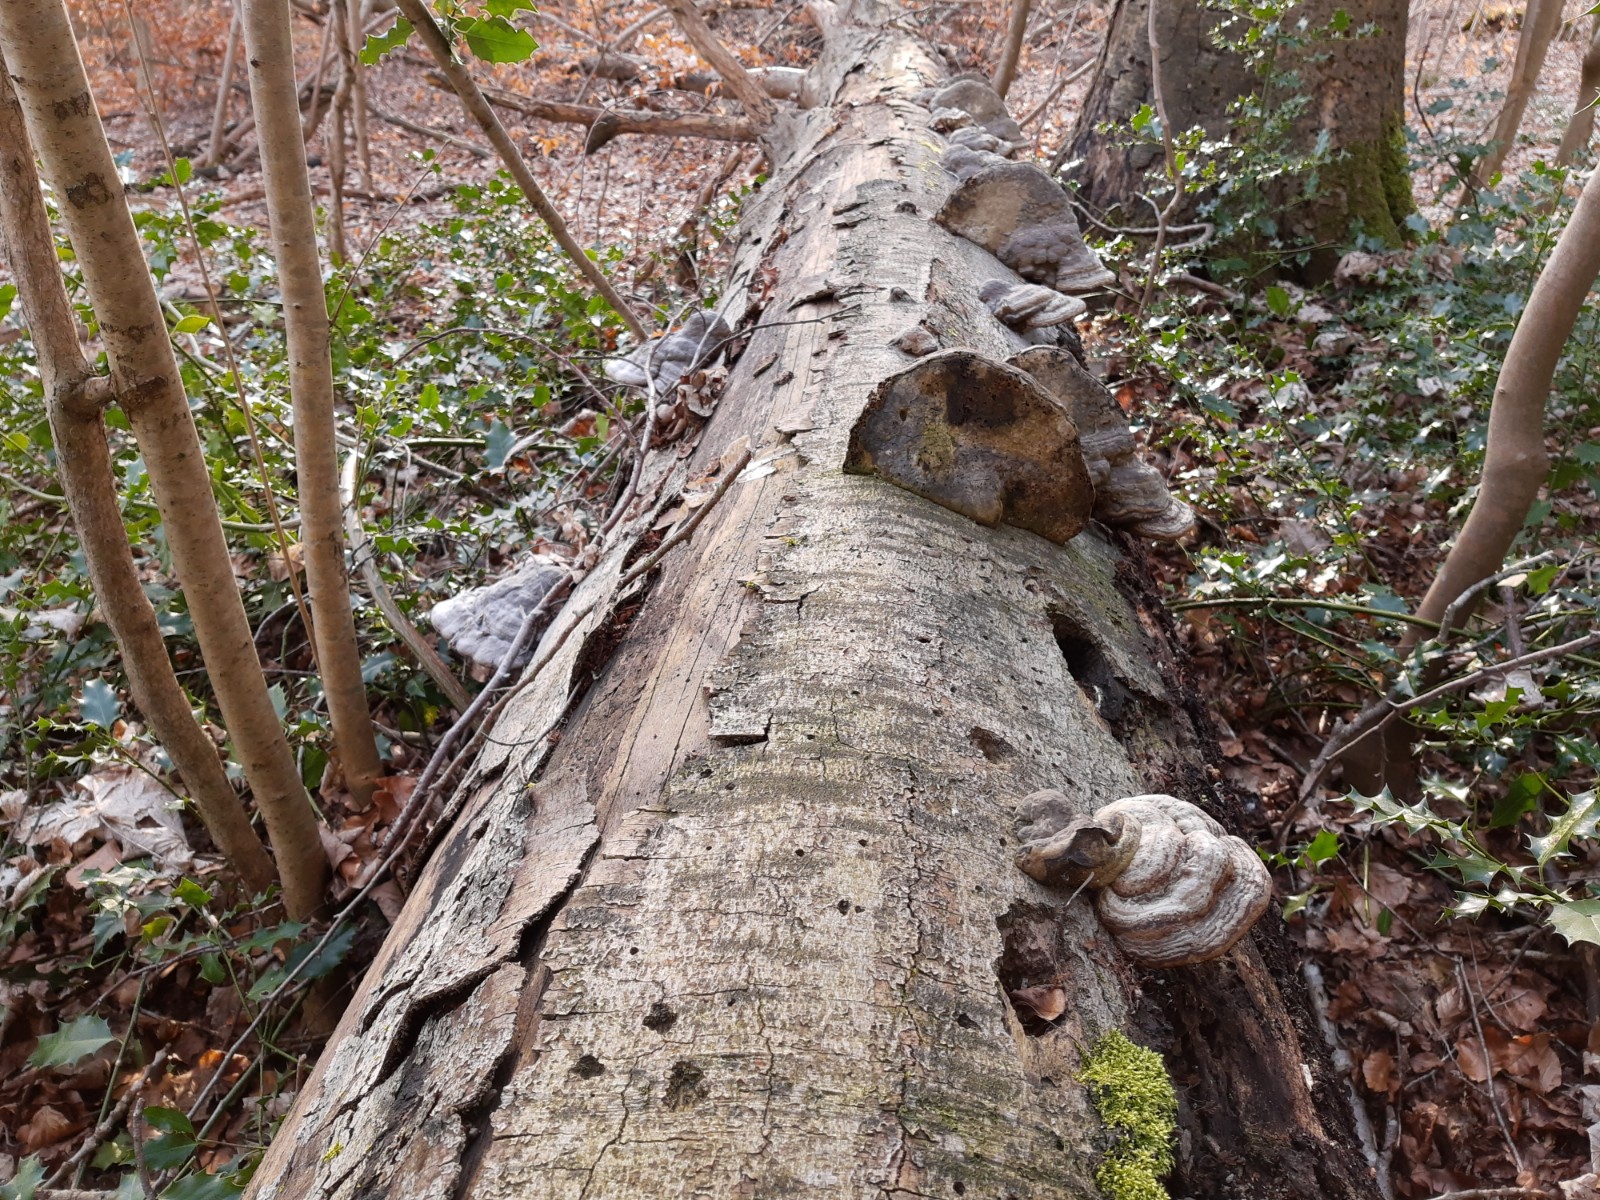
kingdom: Fungi
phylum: Basidiomycota
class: Agaricomycetes
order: Polyporales
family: Polyporaceae
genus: Fomes
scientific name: Fomes fomentarius
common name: tøndersvamp
